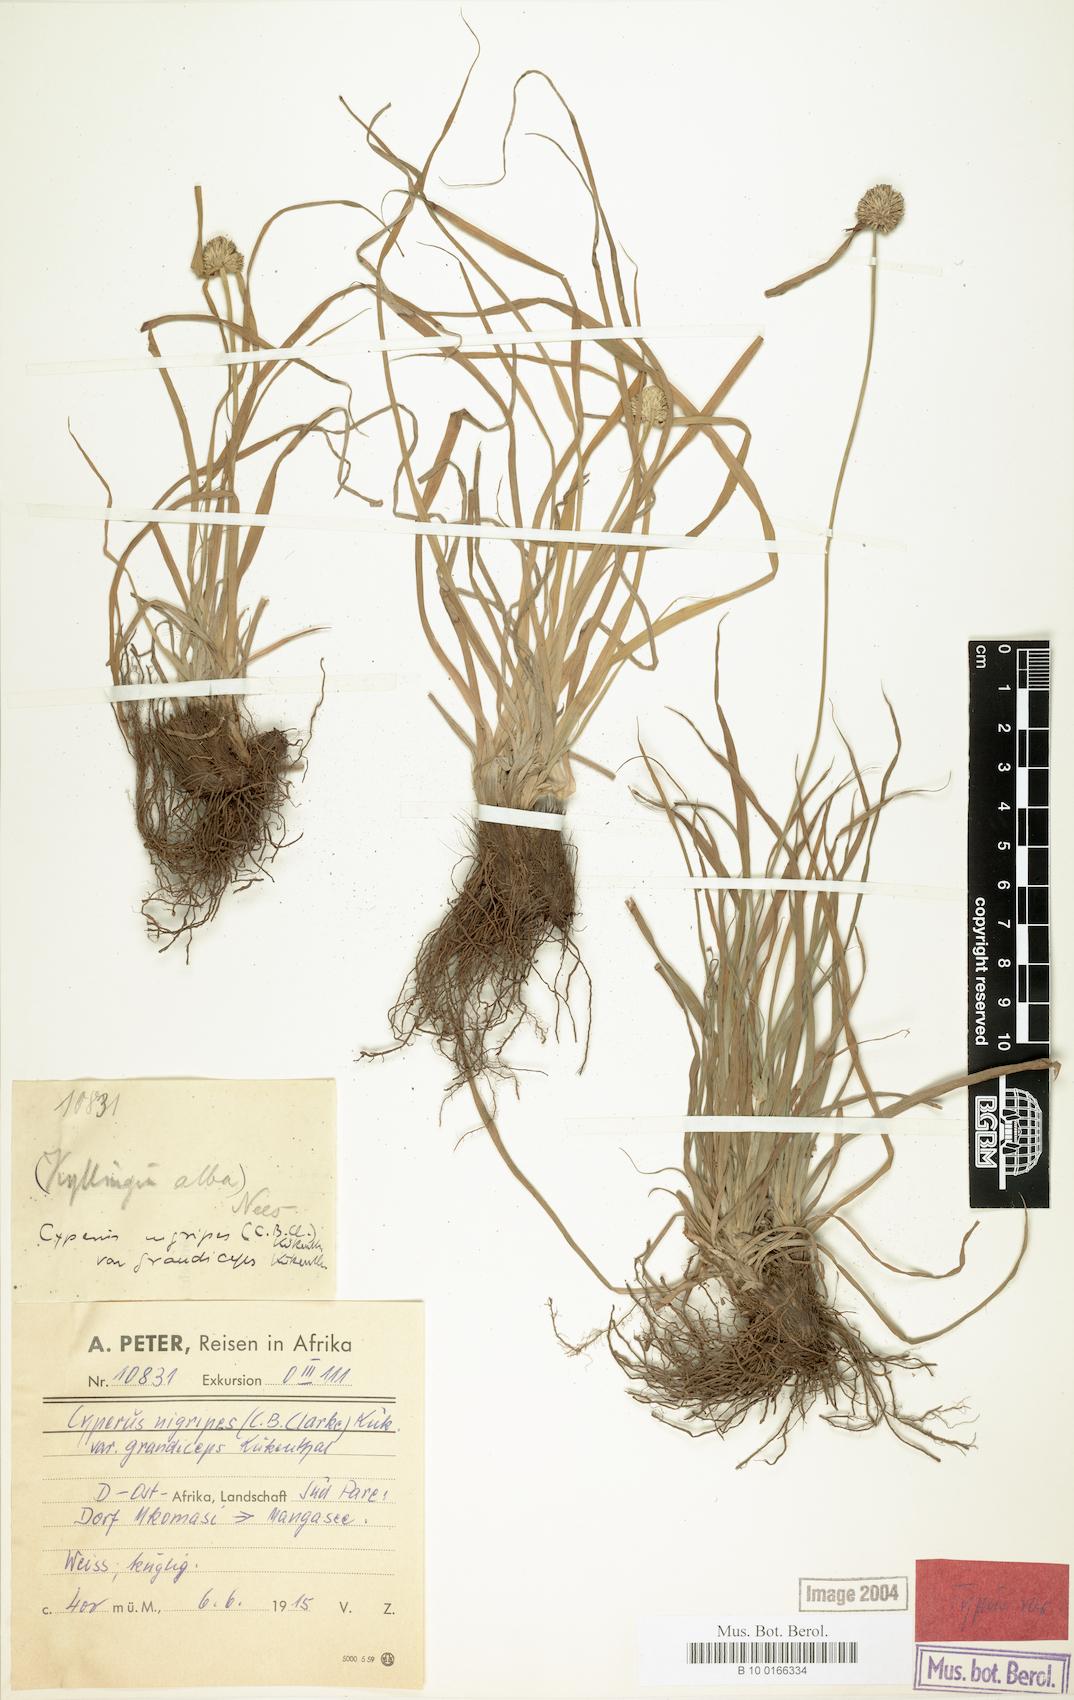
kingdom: Plantae
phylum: Tracheophyta
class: Liliopsida
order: Poales
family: Cyperaceae
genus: Cyperus
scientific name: Cyperus alatus
